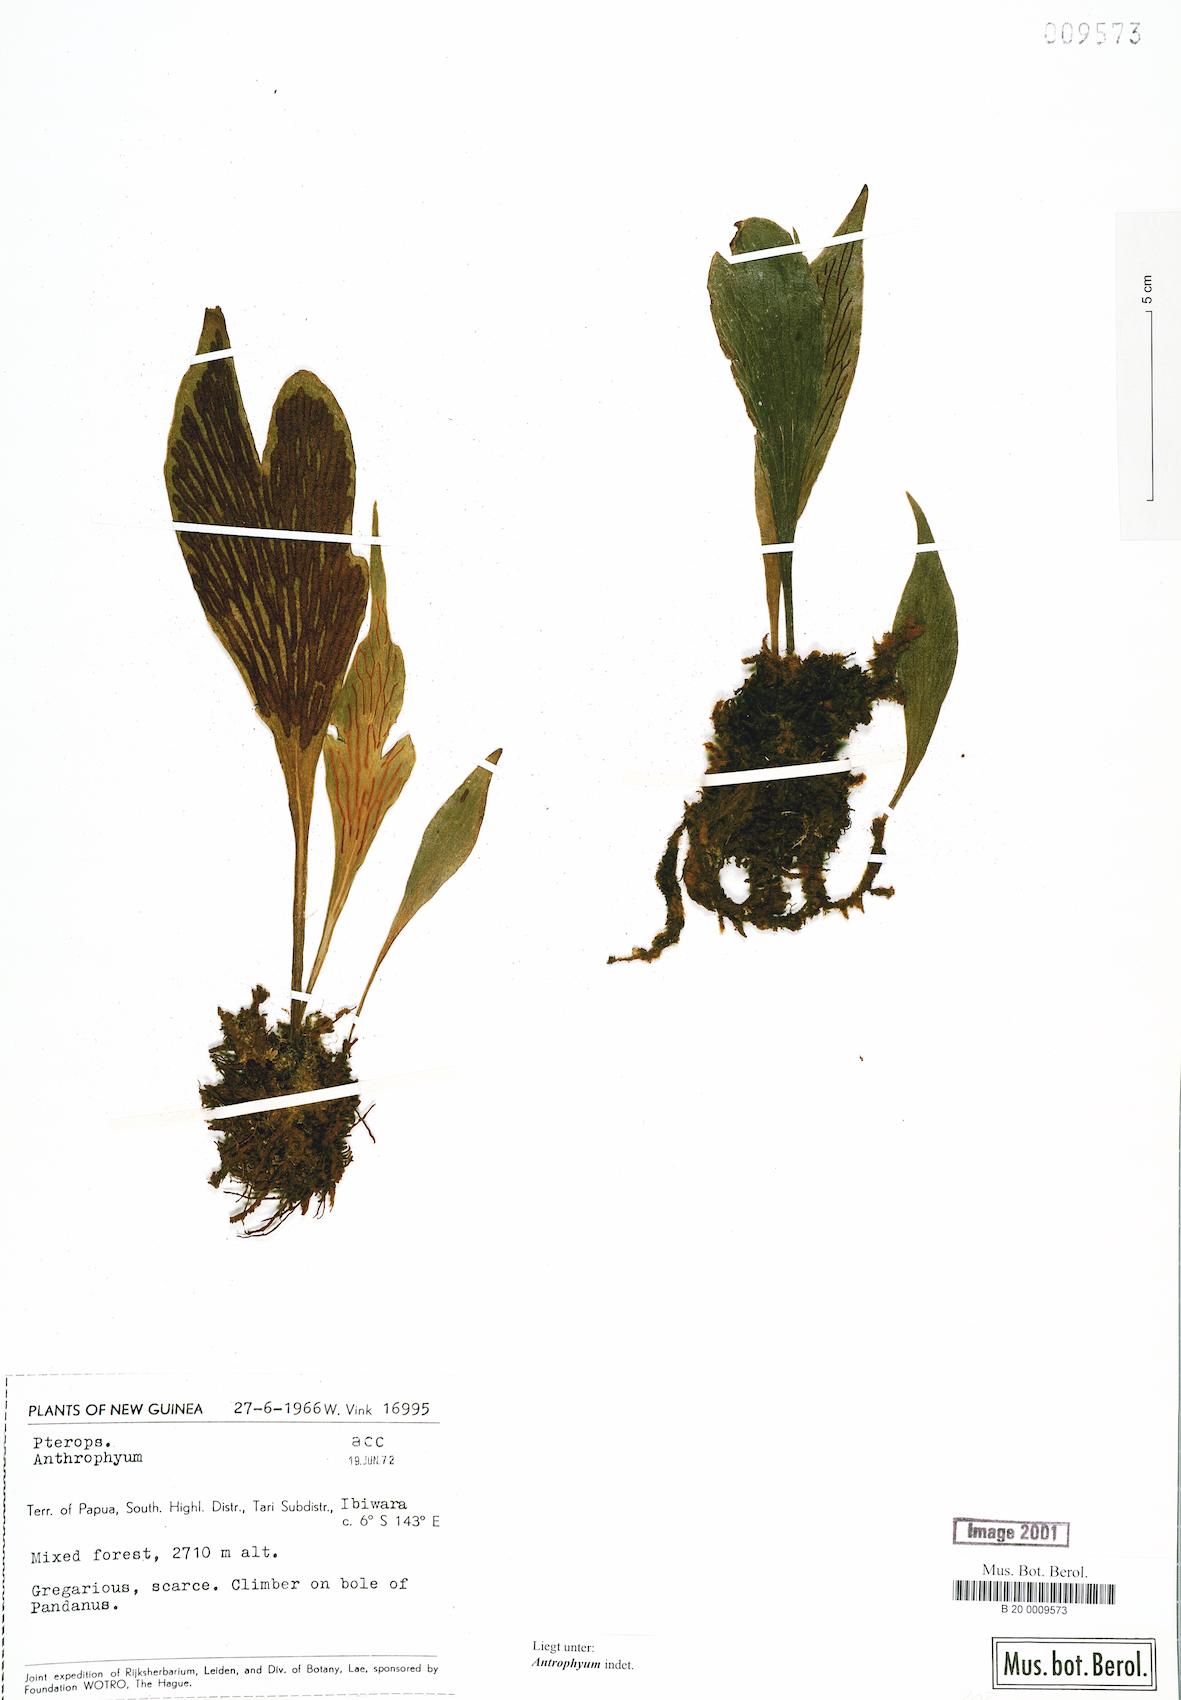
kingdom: Plantae
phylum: Tracheophyta
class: Polypodiopsida
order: Polypodiales
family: Pteridaceae
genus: Antrophyum
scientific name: Antrophyum
